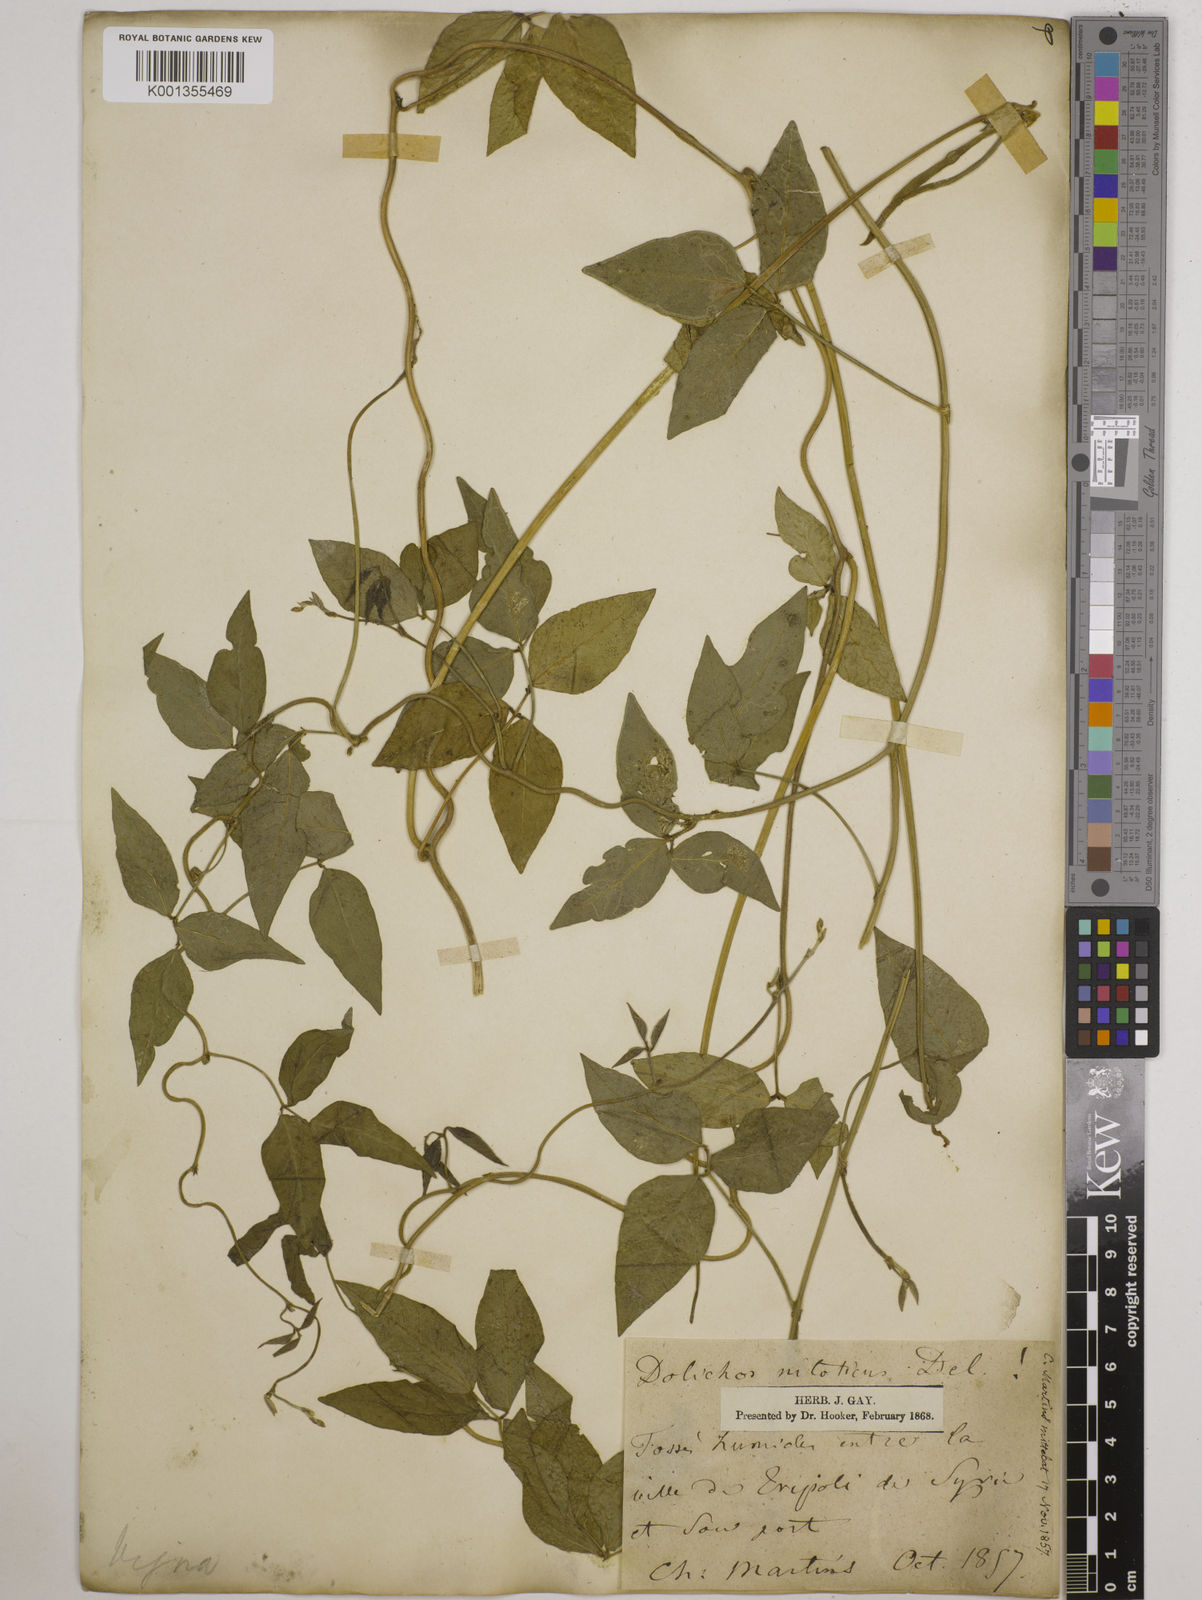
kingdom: Plantae
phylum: Tracheophyta
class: Magnoliopsida
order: Fabales
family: Fabaceae
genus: Vigna
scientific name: Vigna luteola
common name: Hairypod cowpea
